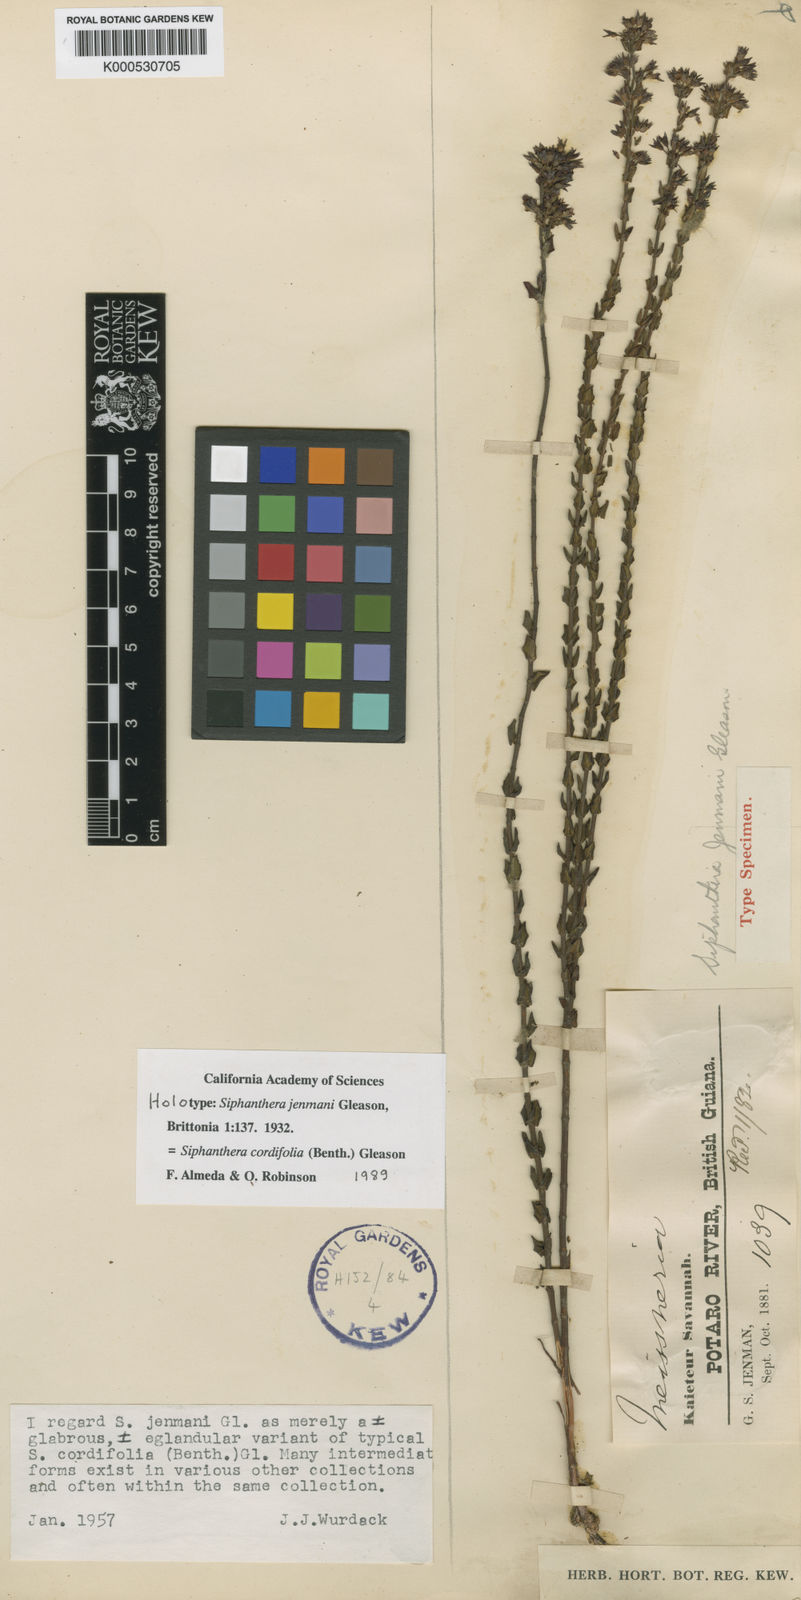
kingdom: Plantae
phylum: Tracheophyta
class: Magnoliopsida
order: Myrtales
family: Melastomataceae
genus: Siphanthera
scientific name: Siphanthera cordifolia
